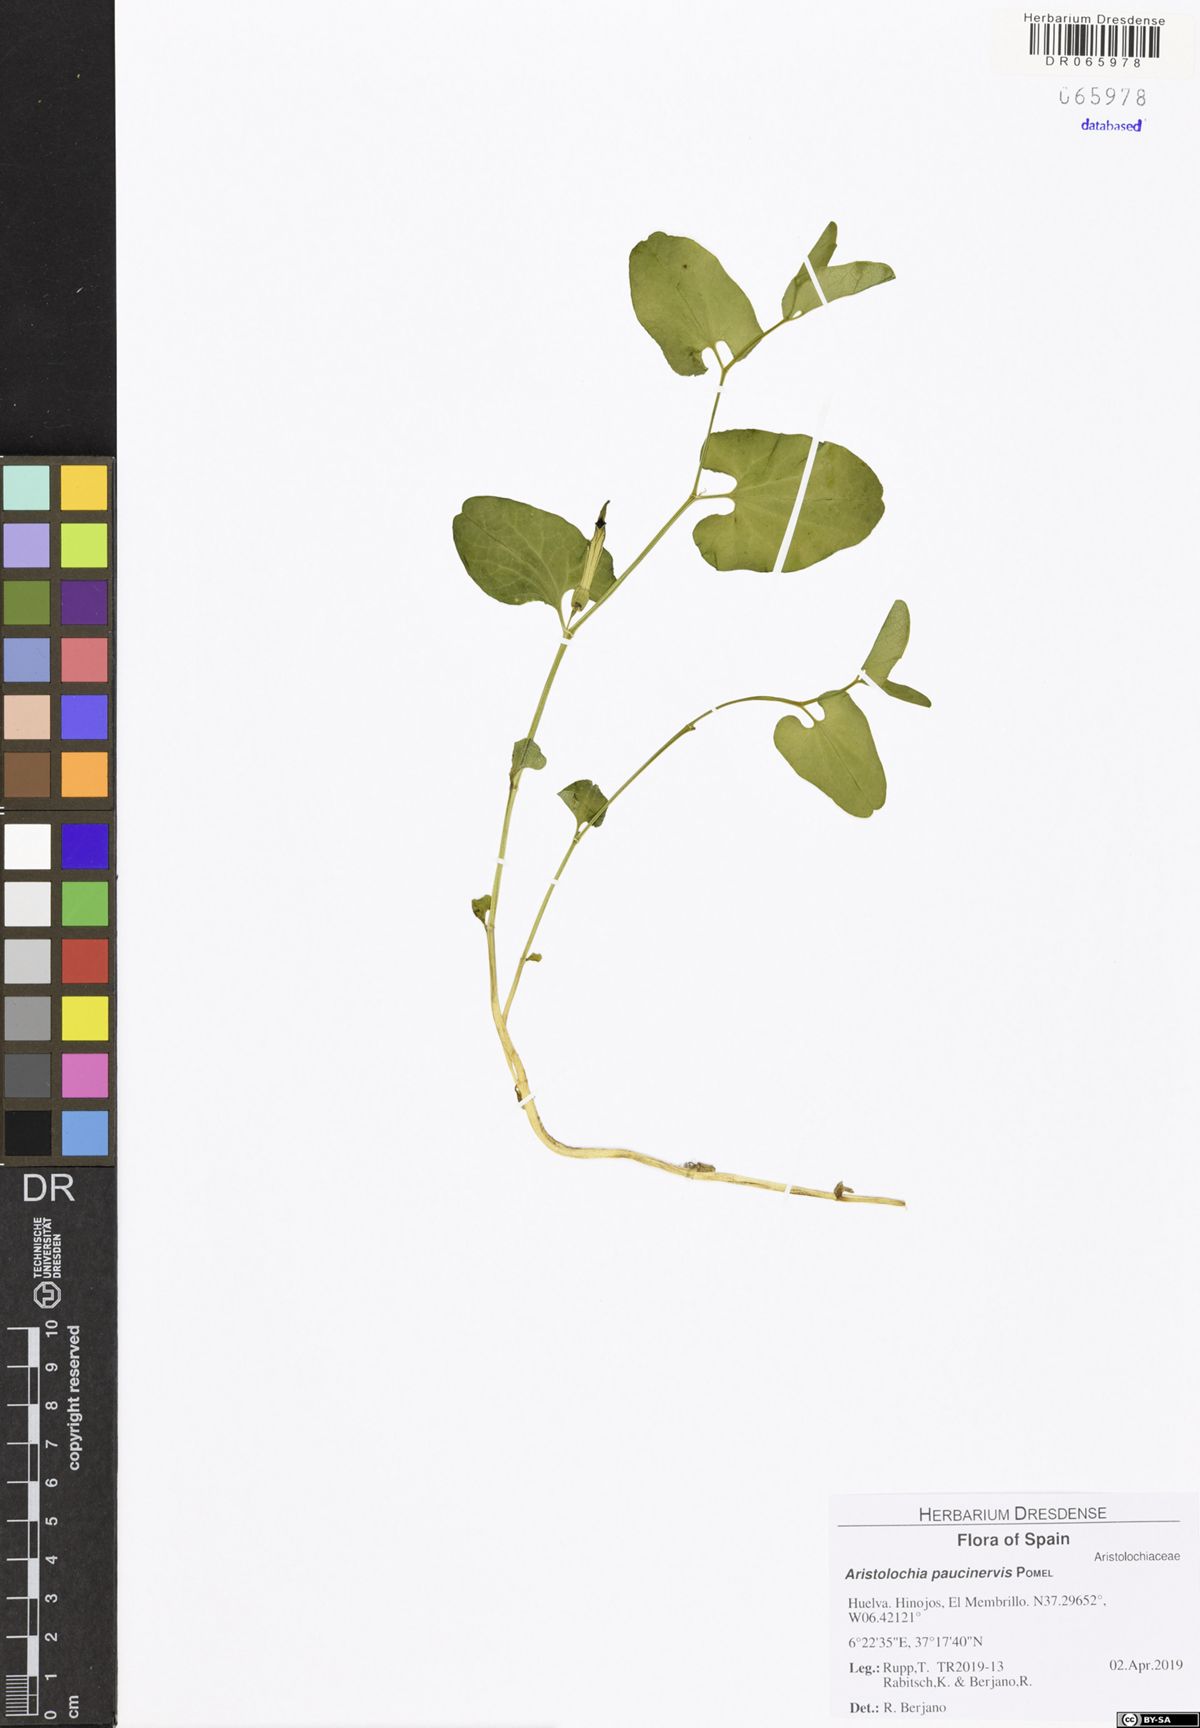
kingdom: Plantae
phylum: Tracheophyta
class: Magnoliopsida
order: Piperales
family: Aristolochiaceae
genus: Aristolochia
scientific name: Aristolochia paucinervis
